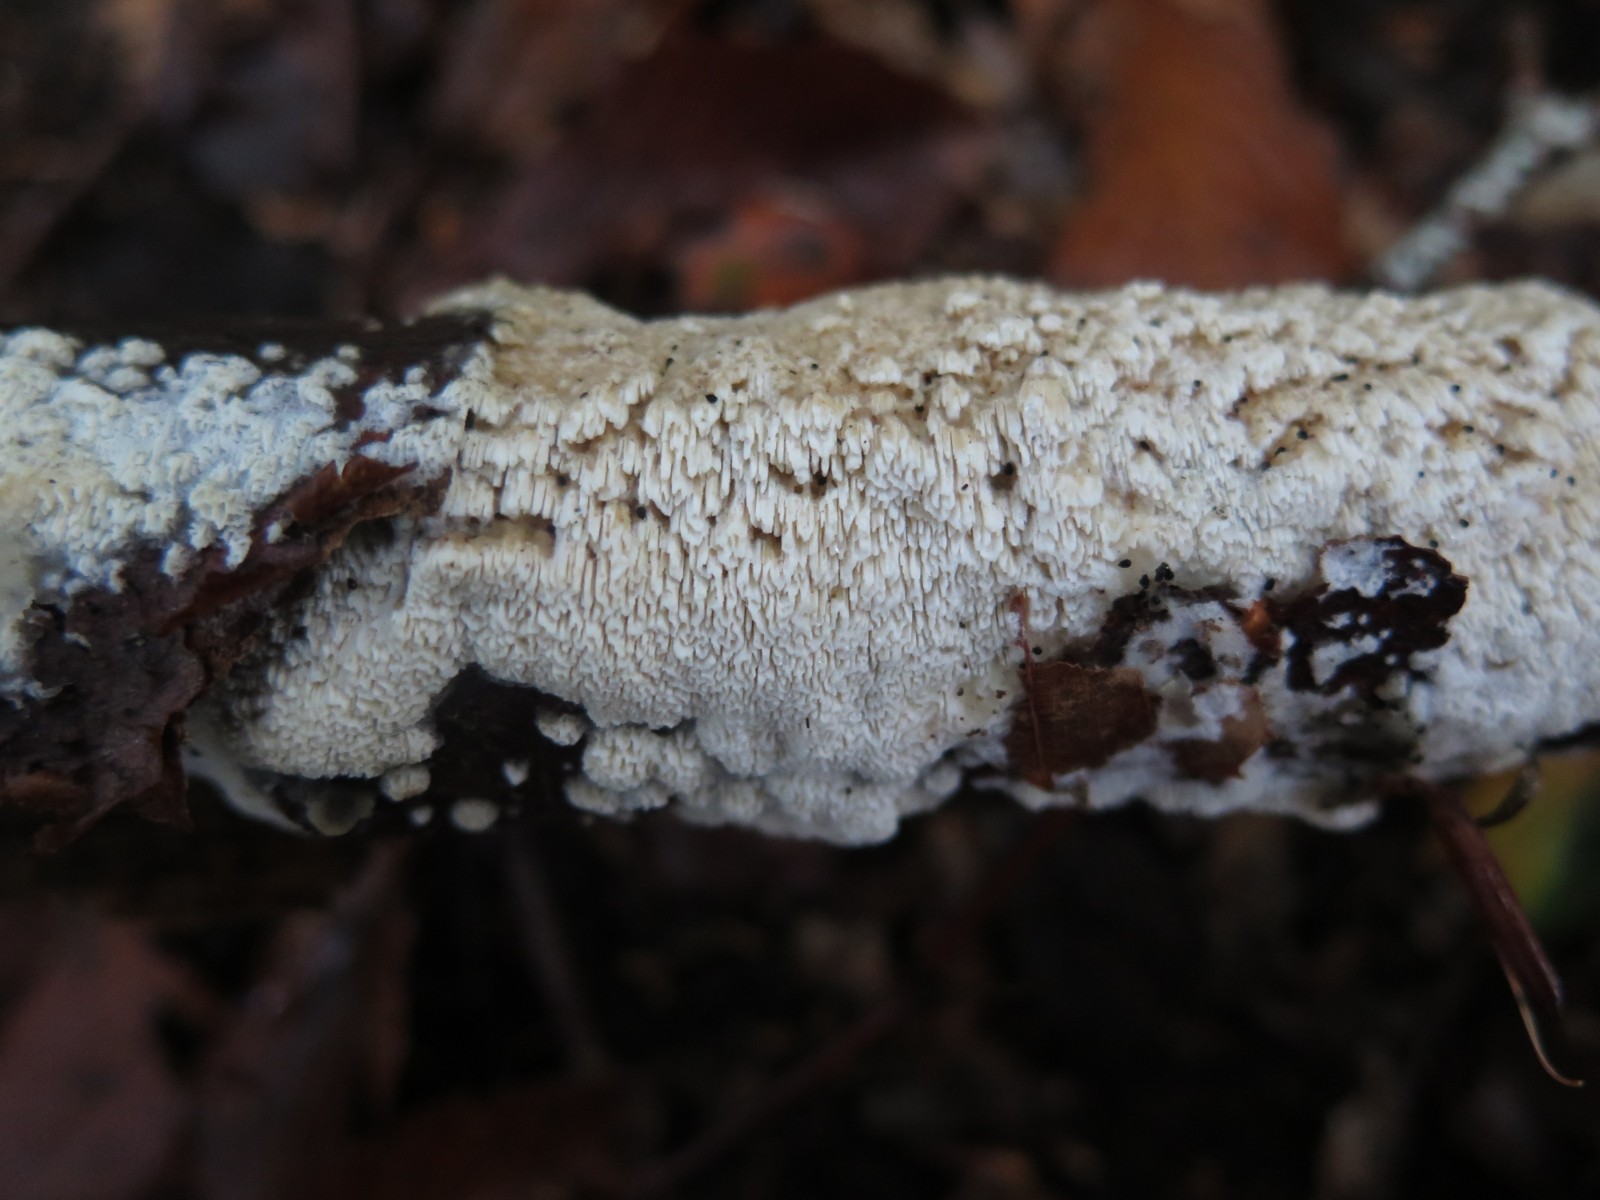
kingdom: Fungi
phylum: Basidiomycota
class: Agaricomycetes
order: Hymenochaetales
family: Schizoporaceae
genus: Schizopora
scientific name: Schizopora paradoxa
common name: hvid tandsvamp
